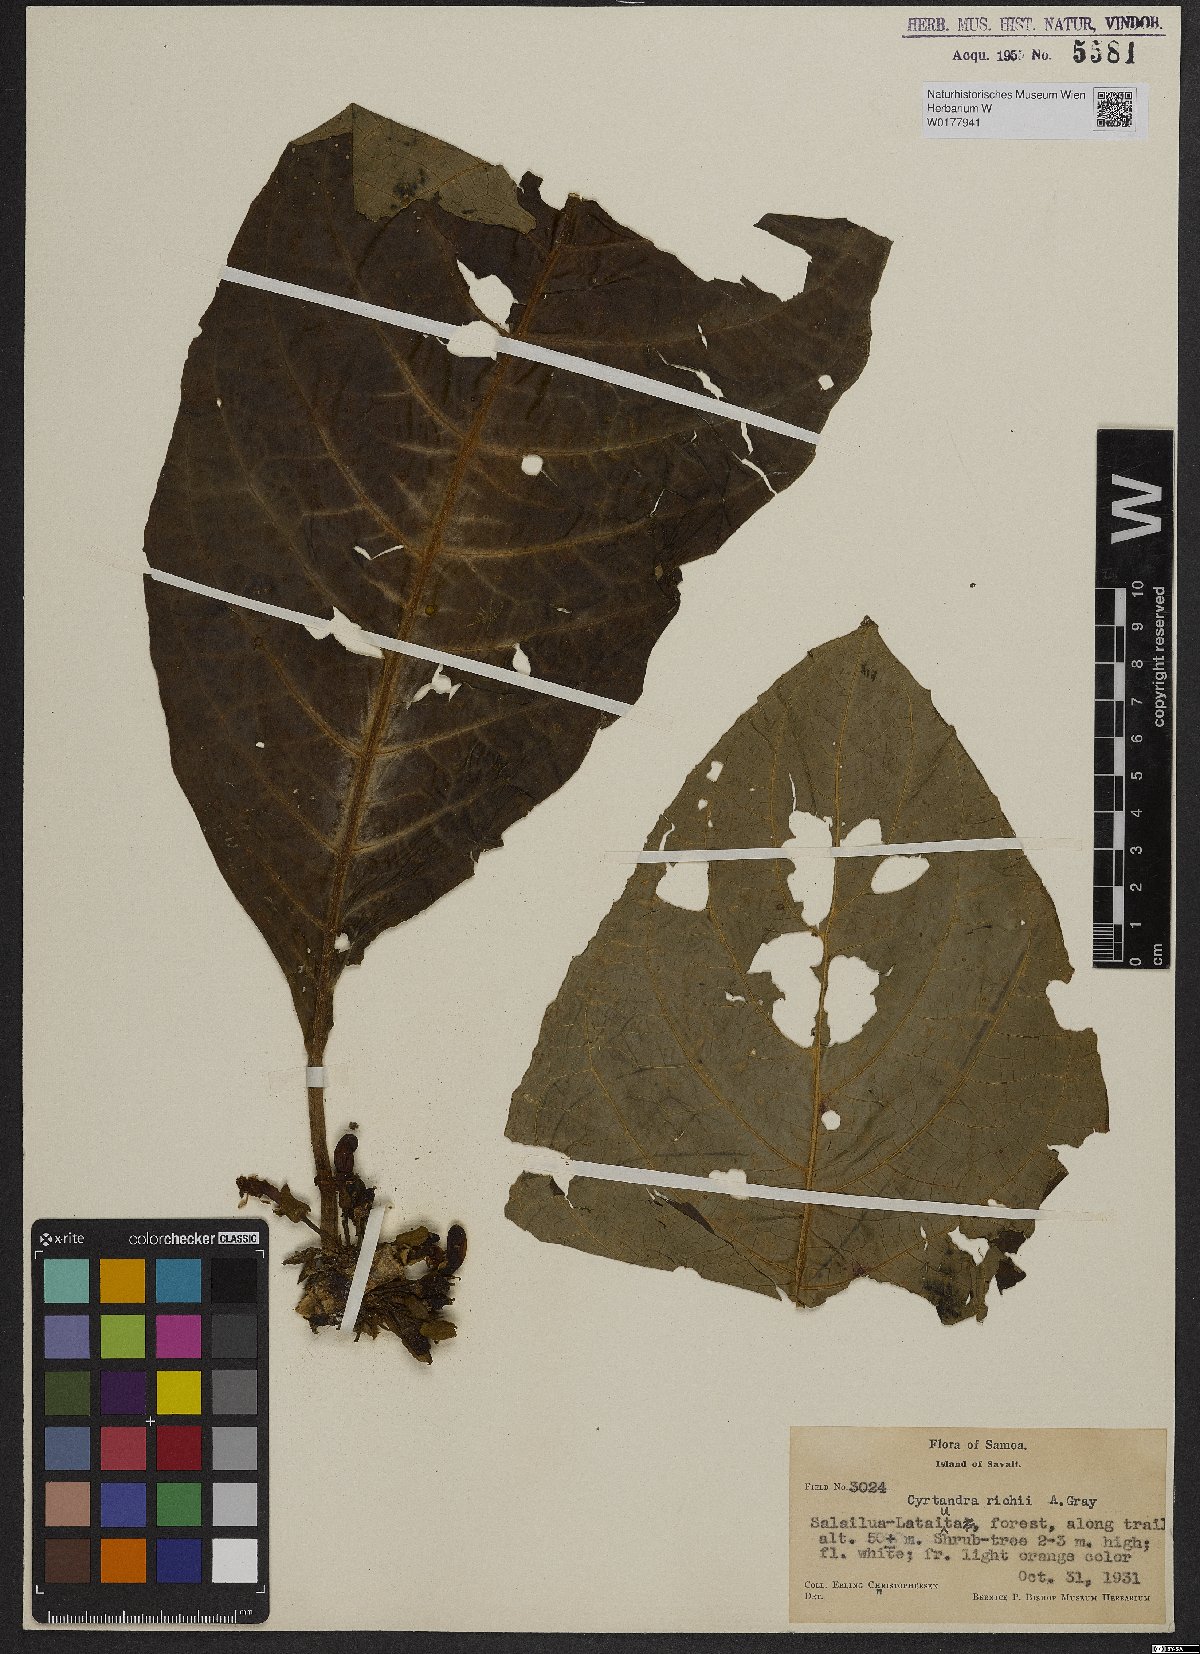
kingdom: Plantae
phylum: Tracheophyta
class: Magnoliopsida
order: Lamiales
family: Gesneriaceae
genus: Cyrtandra
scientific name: Cyrtandra richii
